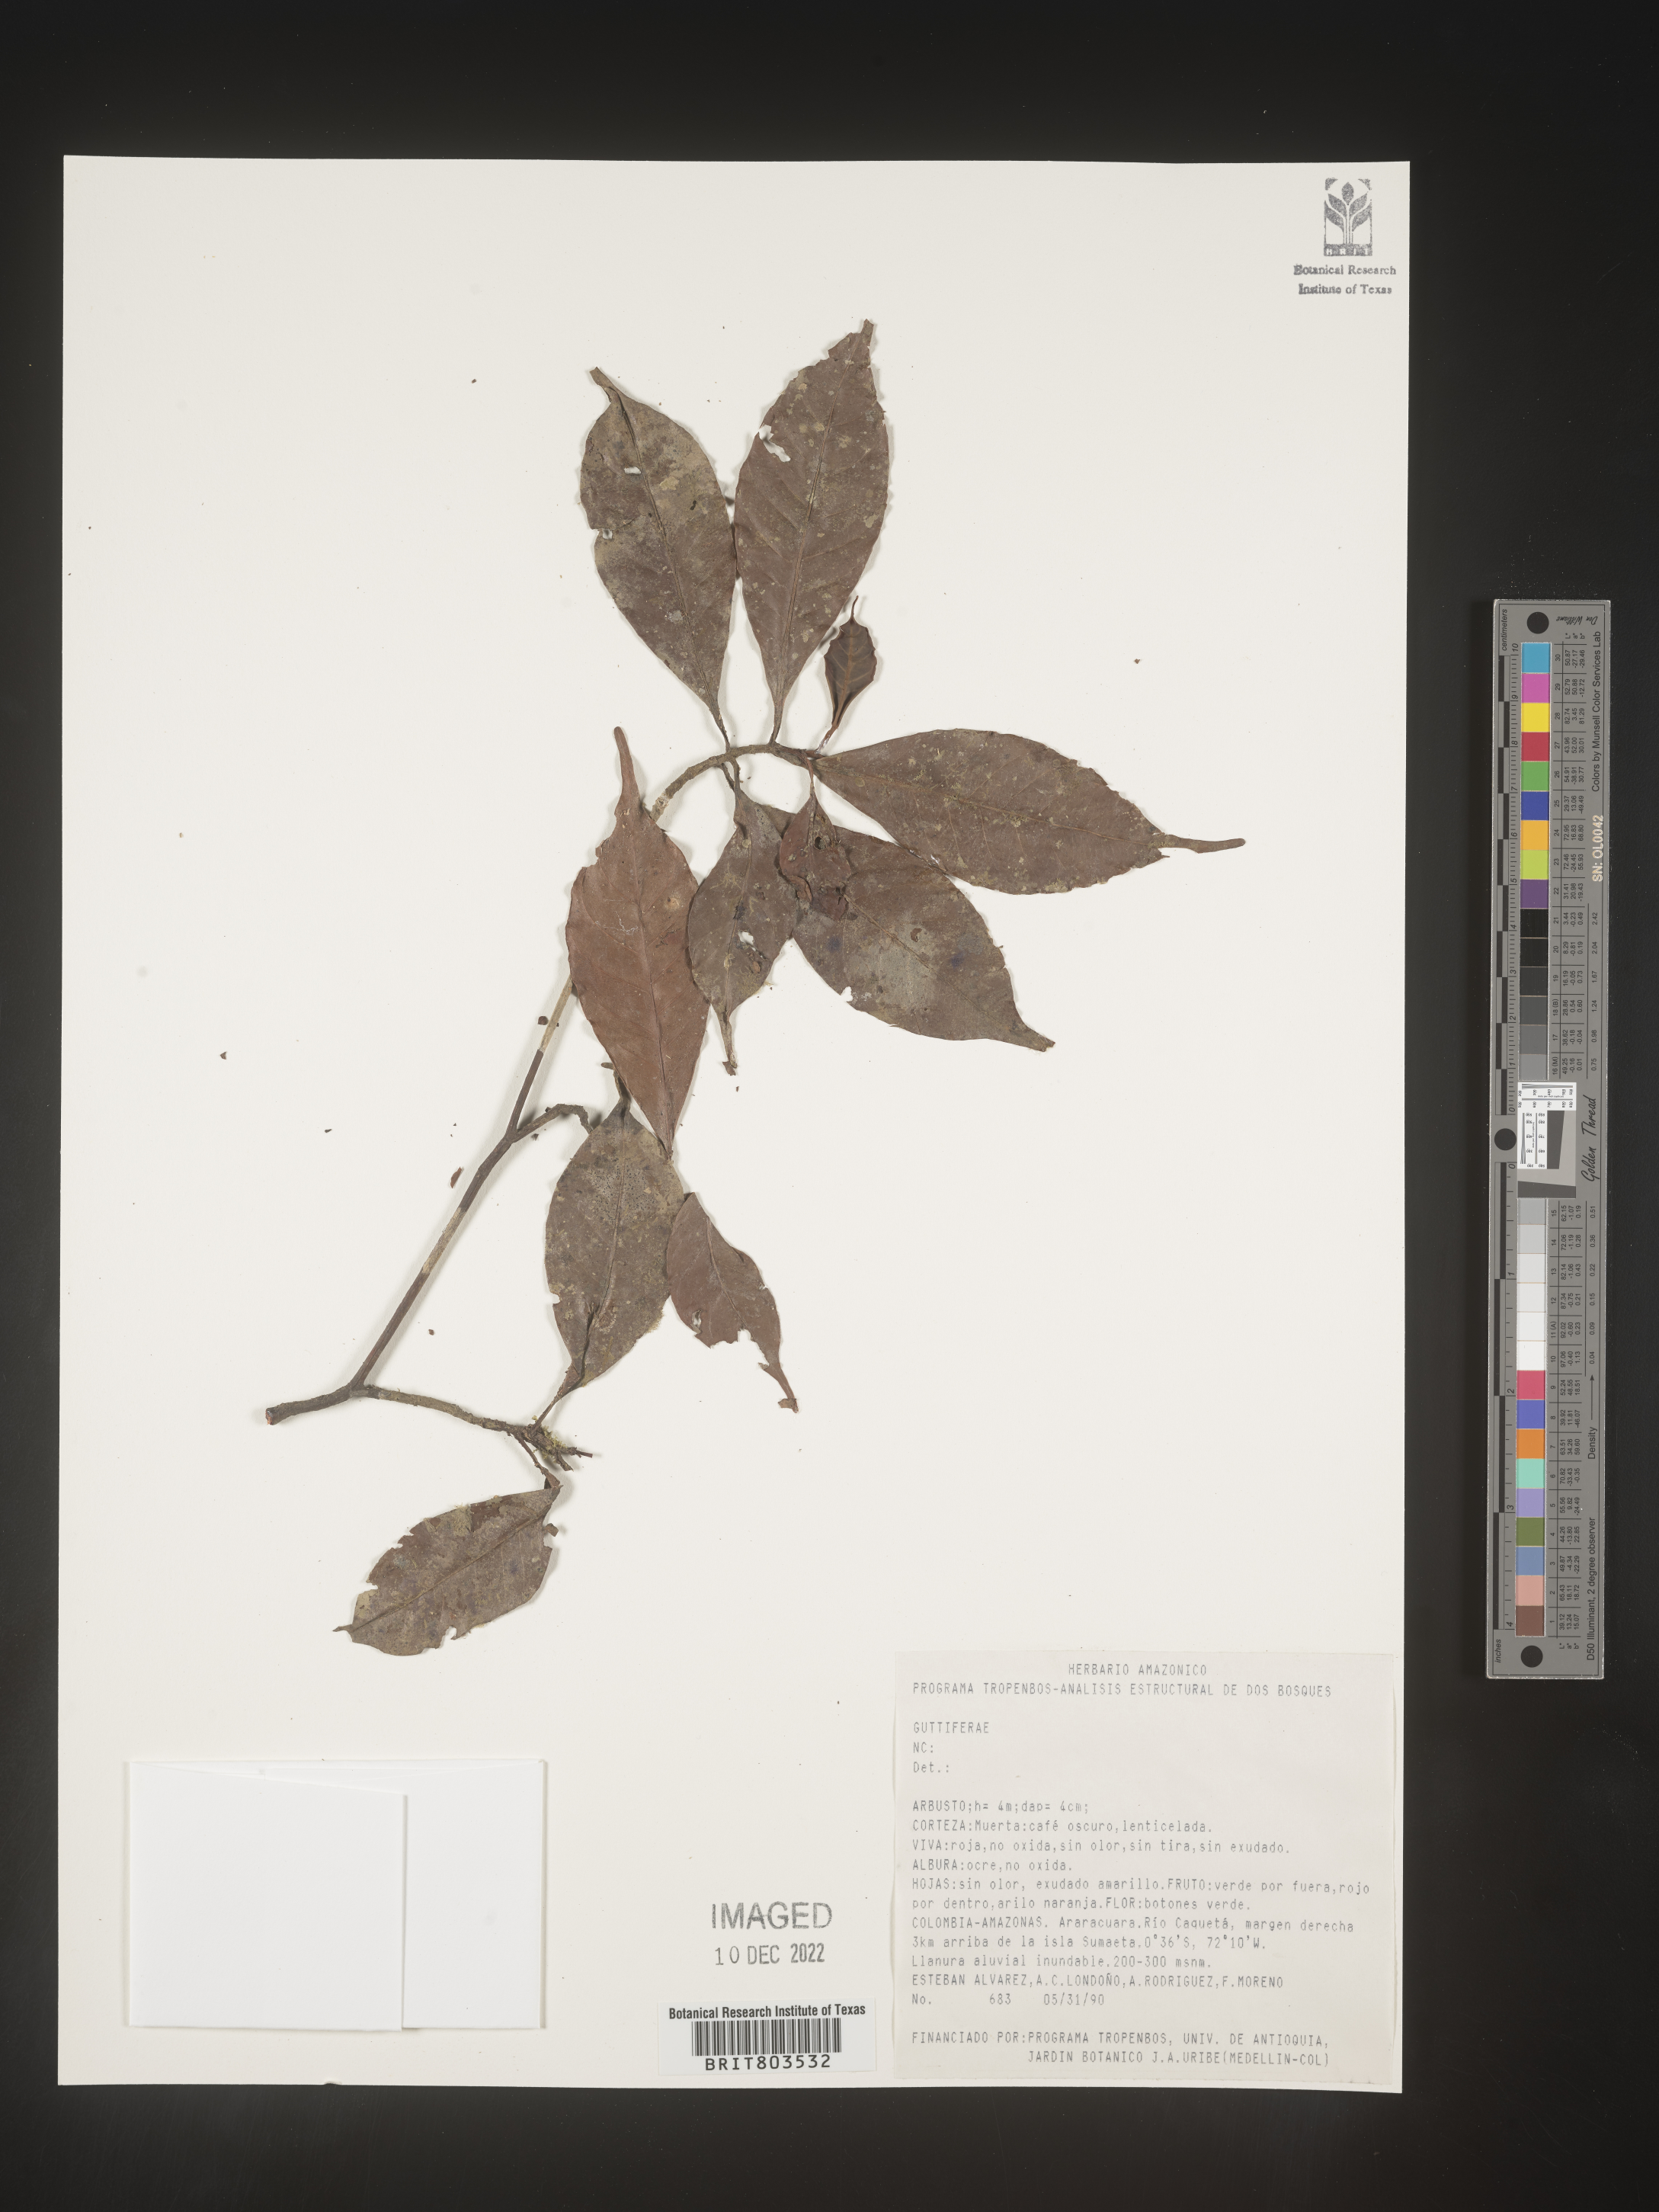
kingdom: Plantae
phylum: Tracheophyta
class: Magnoliopsida
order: Malpighiales
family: Clusiaceae
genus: Tovomita
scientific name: Tovomita
